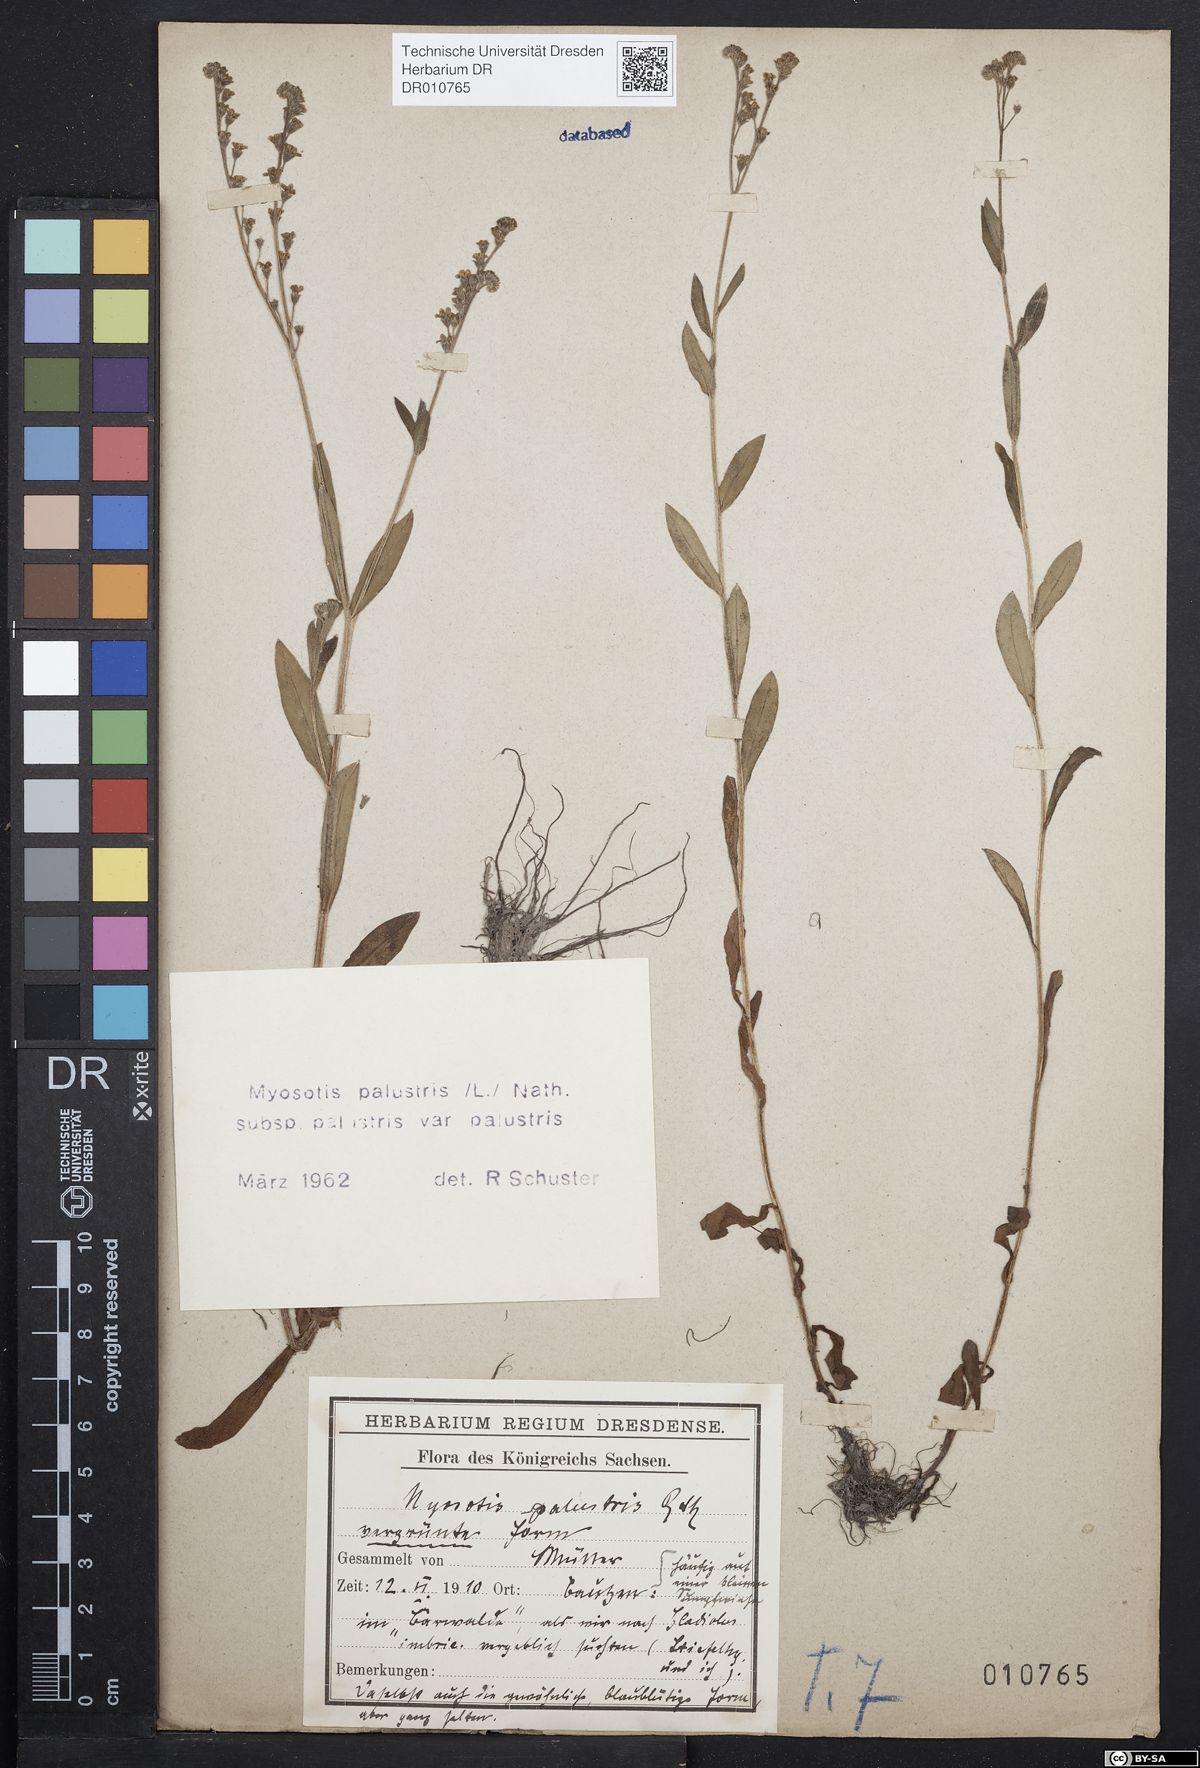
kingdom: Plantae
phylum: Tracheophyta
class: Magnoliopsida
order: Boraginales
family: Boraginaceae
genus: Myosotis
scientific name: Myosotis scorpioides
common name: Water forget-me-not
